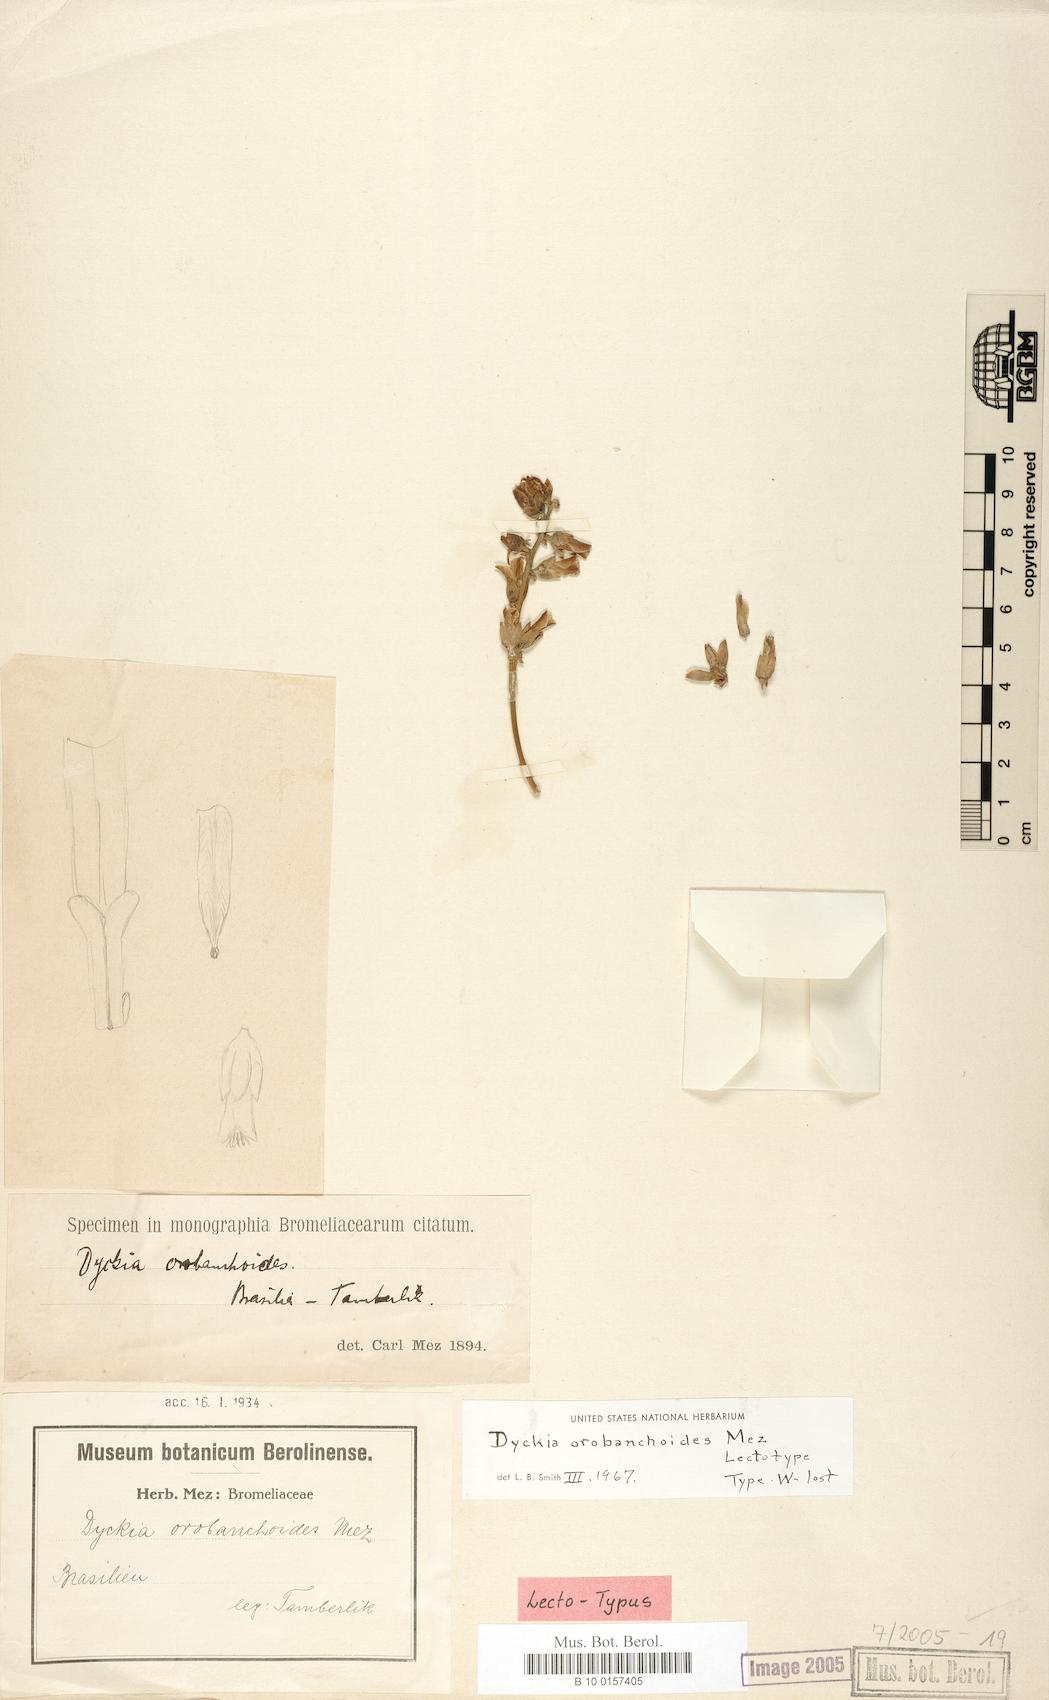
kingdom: Plantae
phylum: Tracheophyta
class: Liliopsida
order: Poales
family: Bromeliaceae
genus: Dyckia
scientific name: Dyckia orobanchoides
